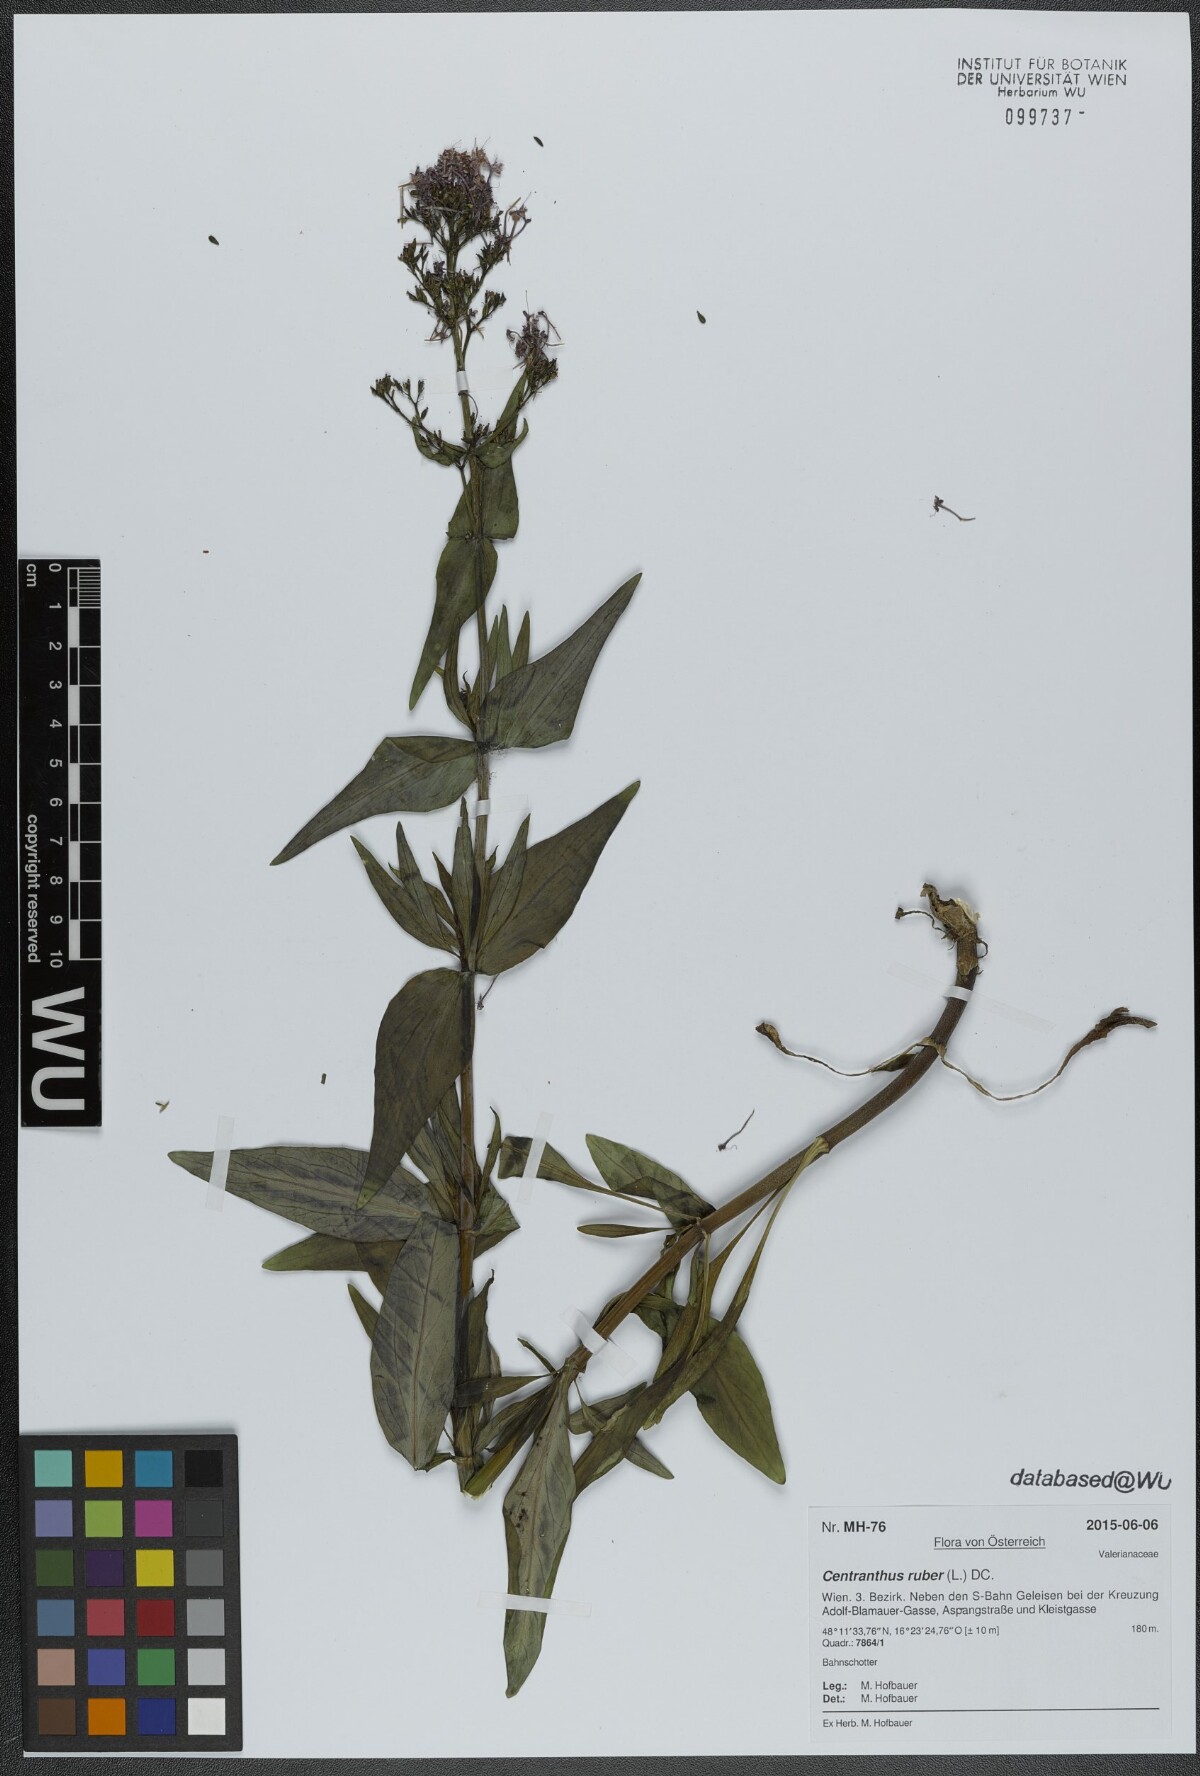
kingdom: Plantae
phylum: Tracheophyta
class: Magnoliopsida
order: Dipsacales
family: Caprifoliaceae
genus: Centranthus
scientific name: Centranthus ruber
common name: Red valerian
